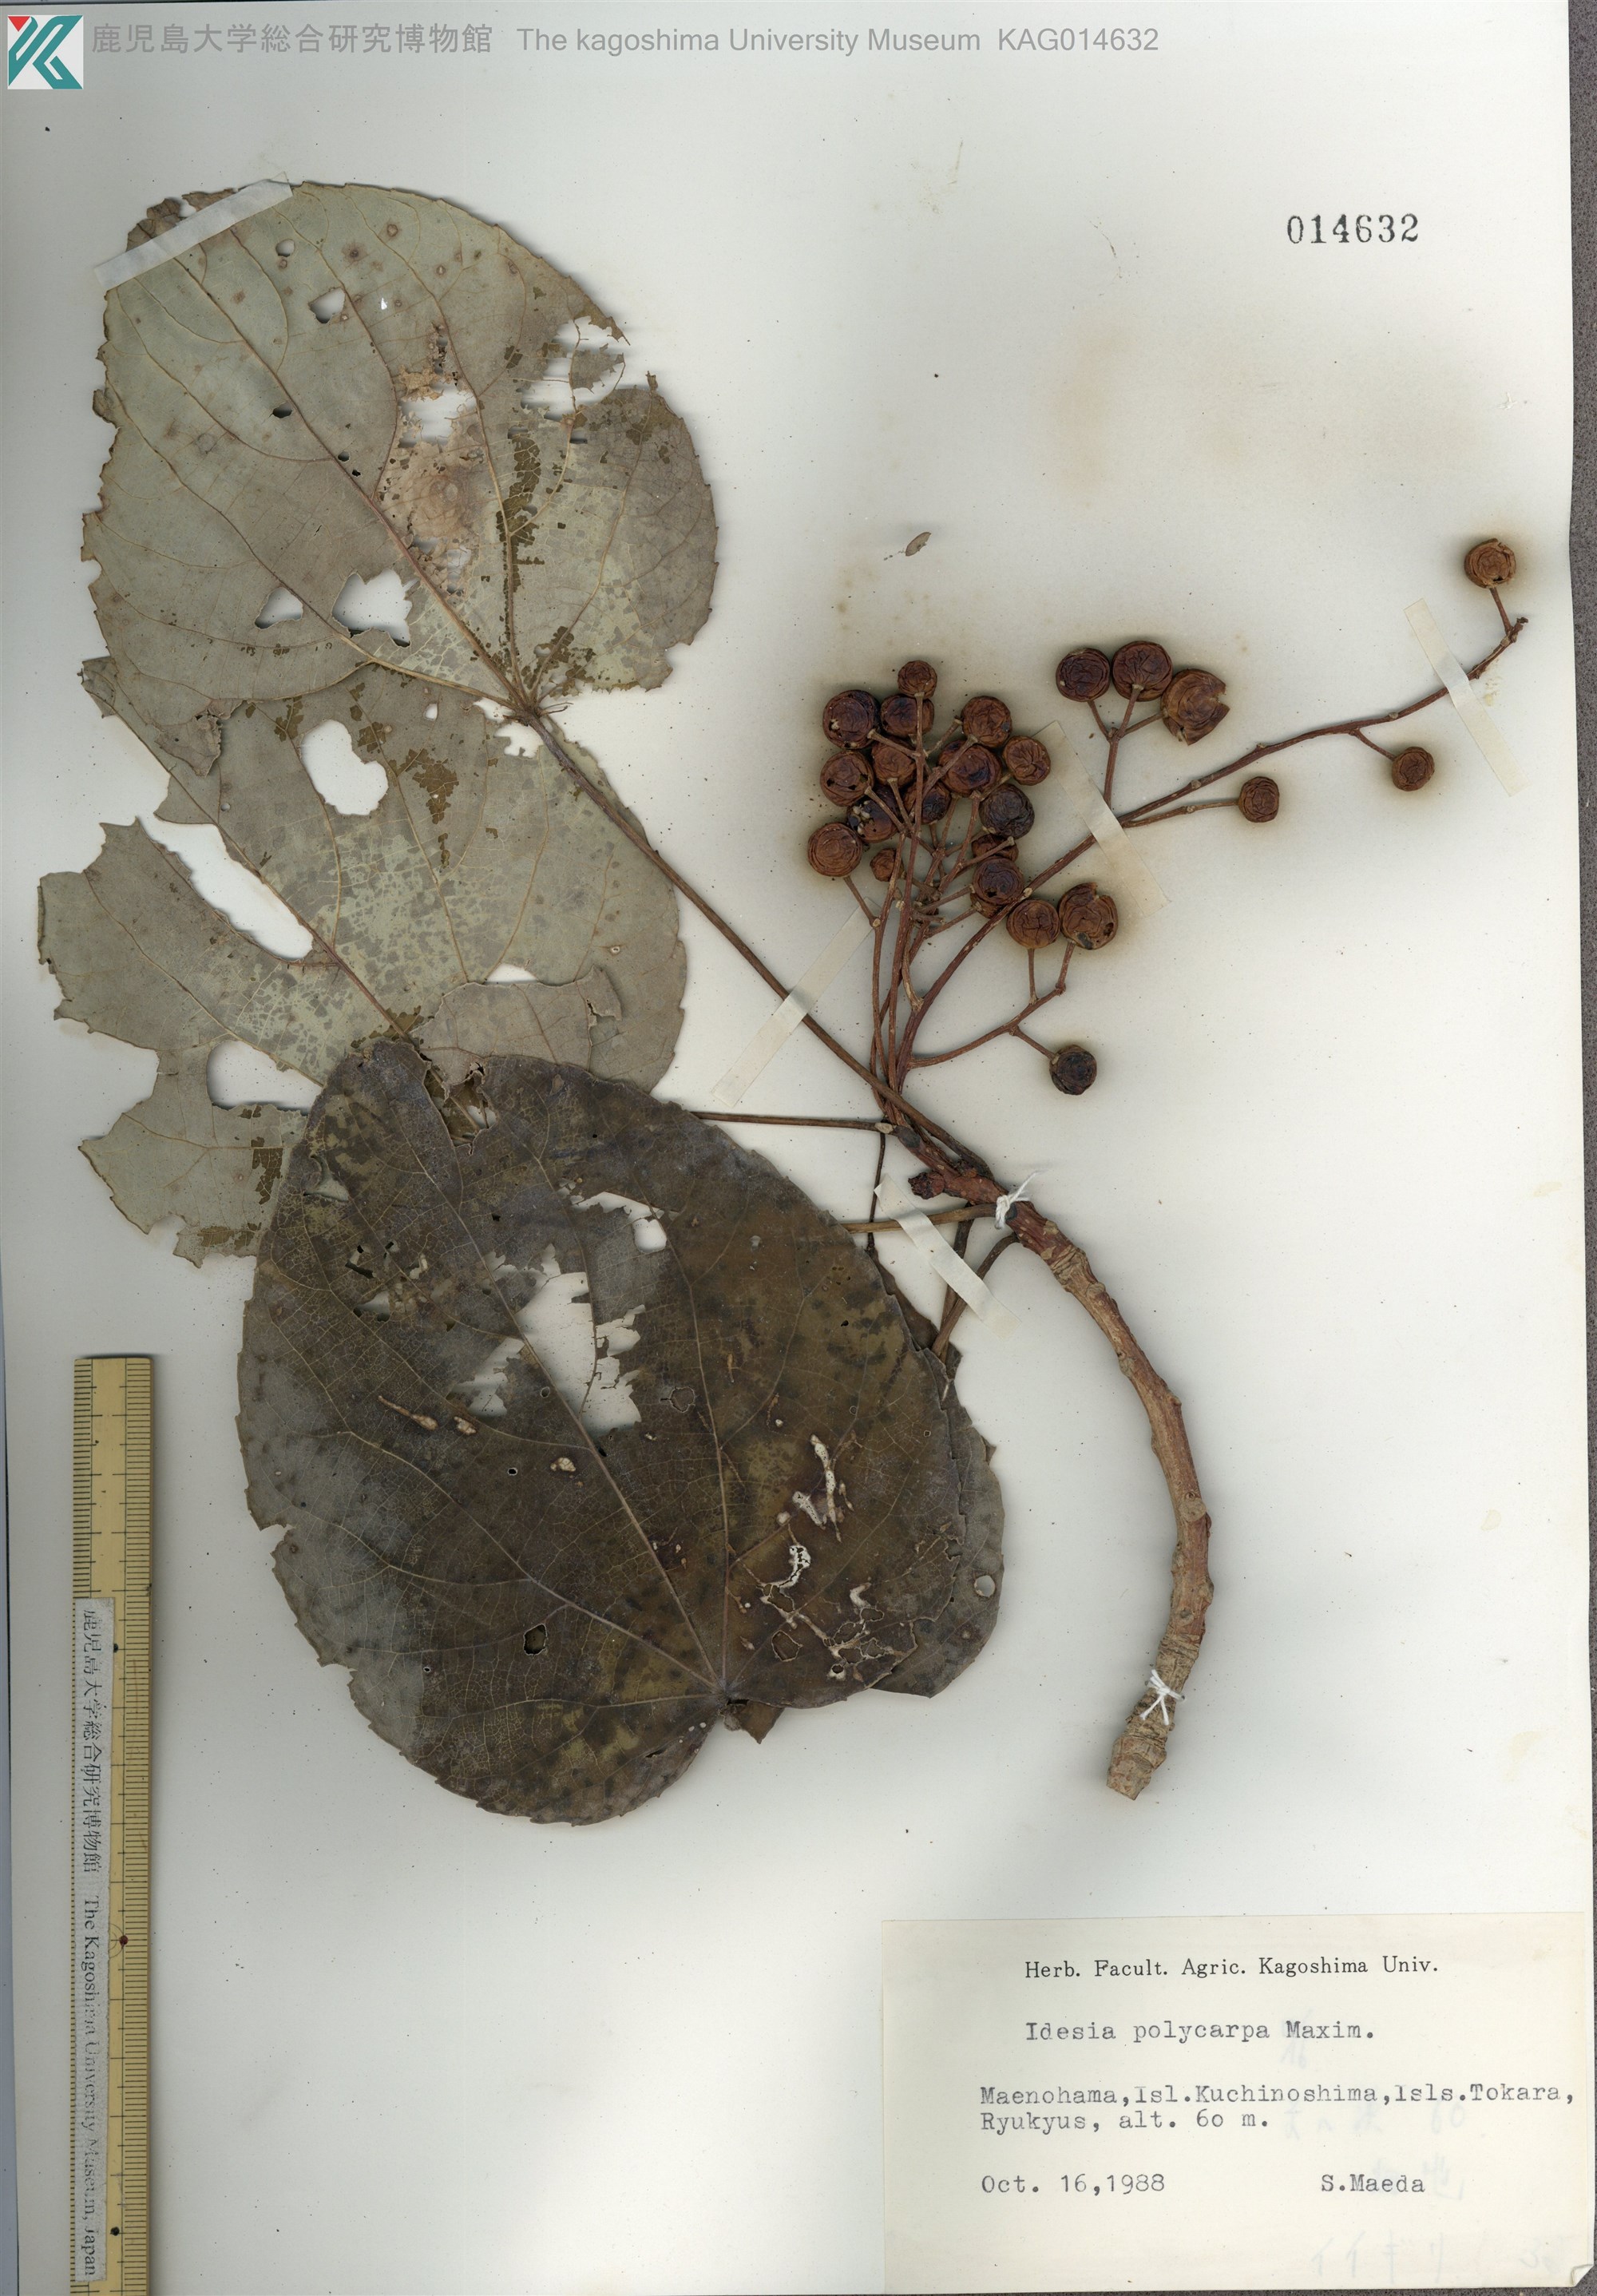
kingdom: Plantae
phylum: Tracheophyta
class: Magnoliopsida
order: Malpighiales
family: Salicaceae
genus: Idesia
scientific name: Idesia polycarpa
